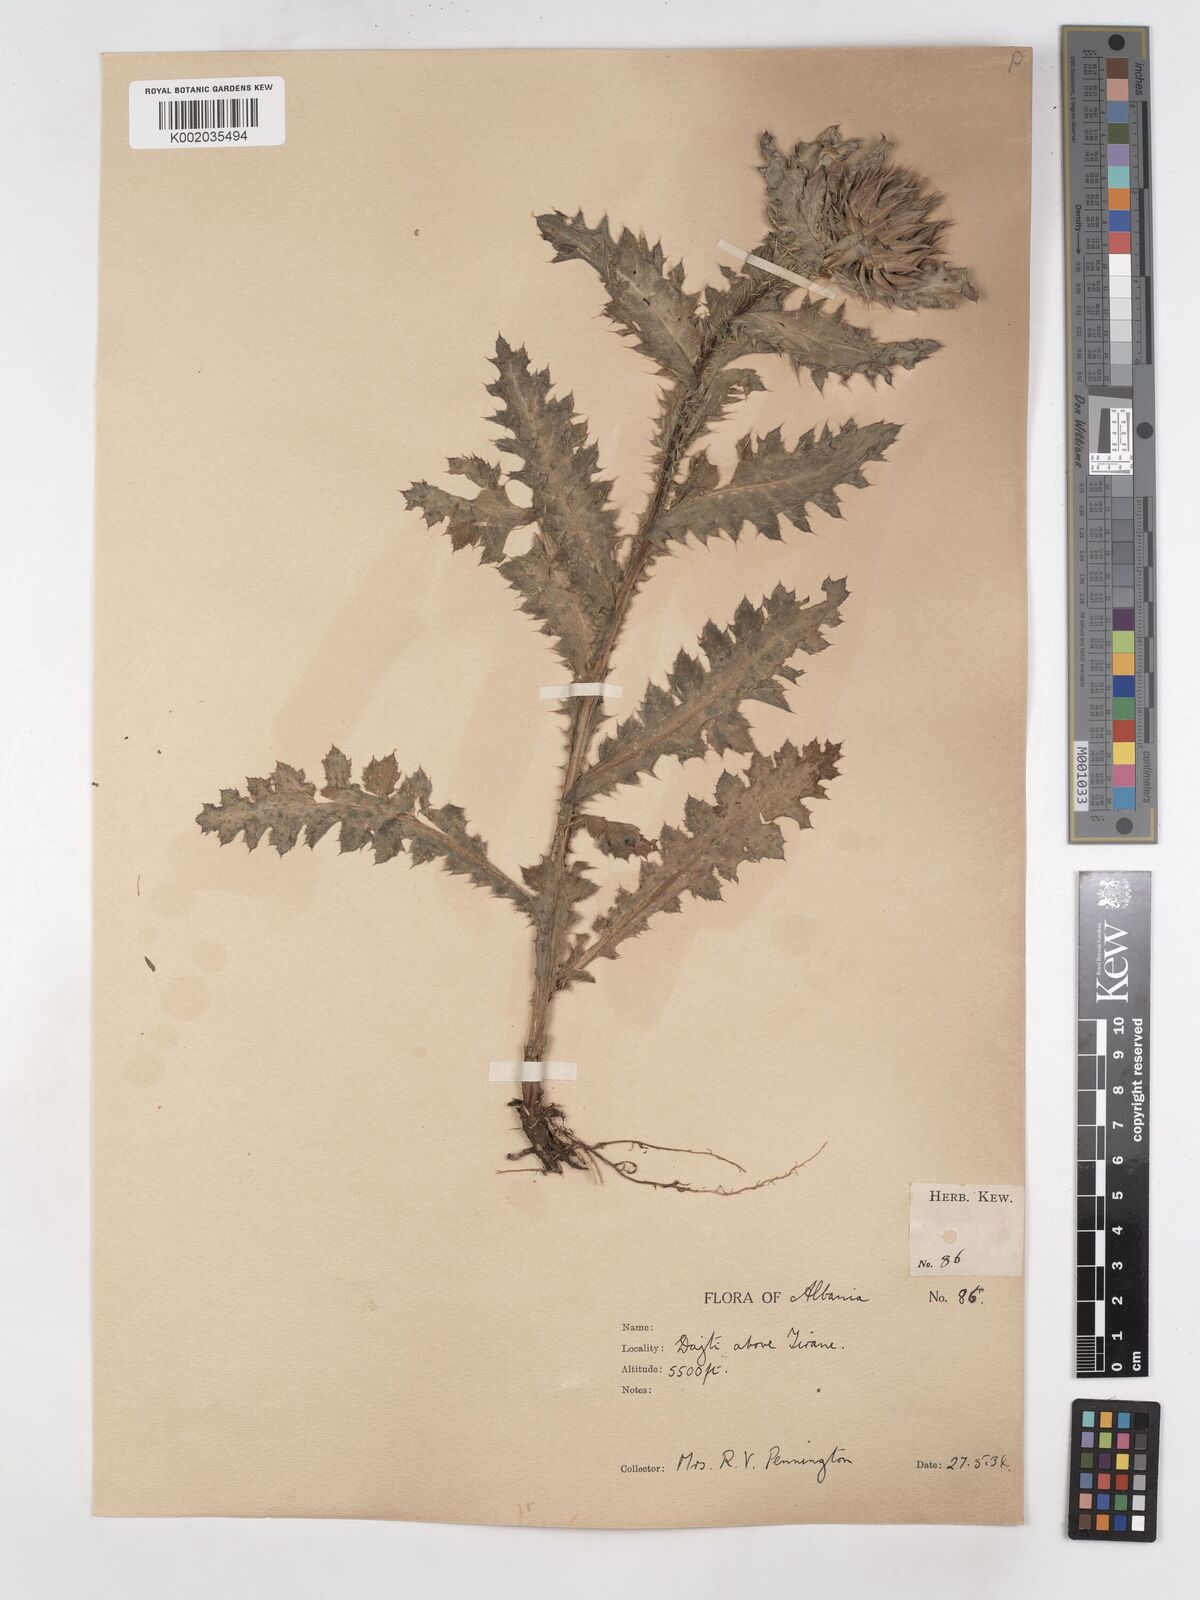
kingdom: Plantae
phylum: Tracheophyta
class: Magnoliopsida
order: Asterales
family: Asteraceae
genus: Carduus
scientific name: Carduus nutans
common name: Musk thistle
